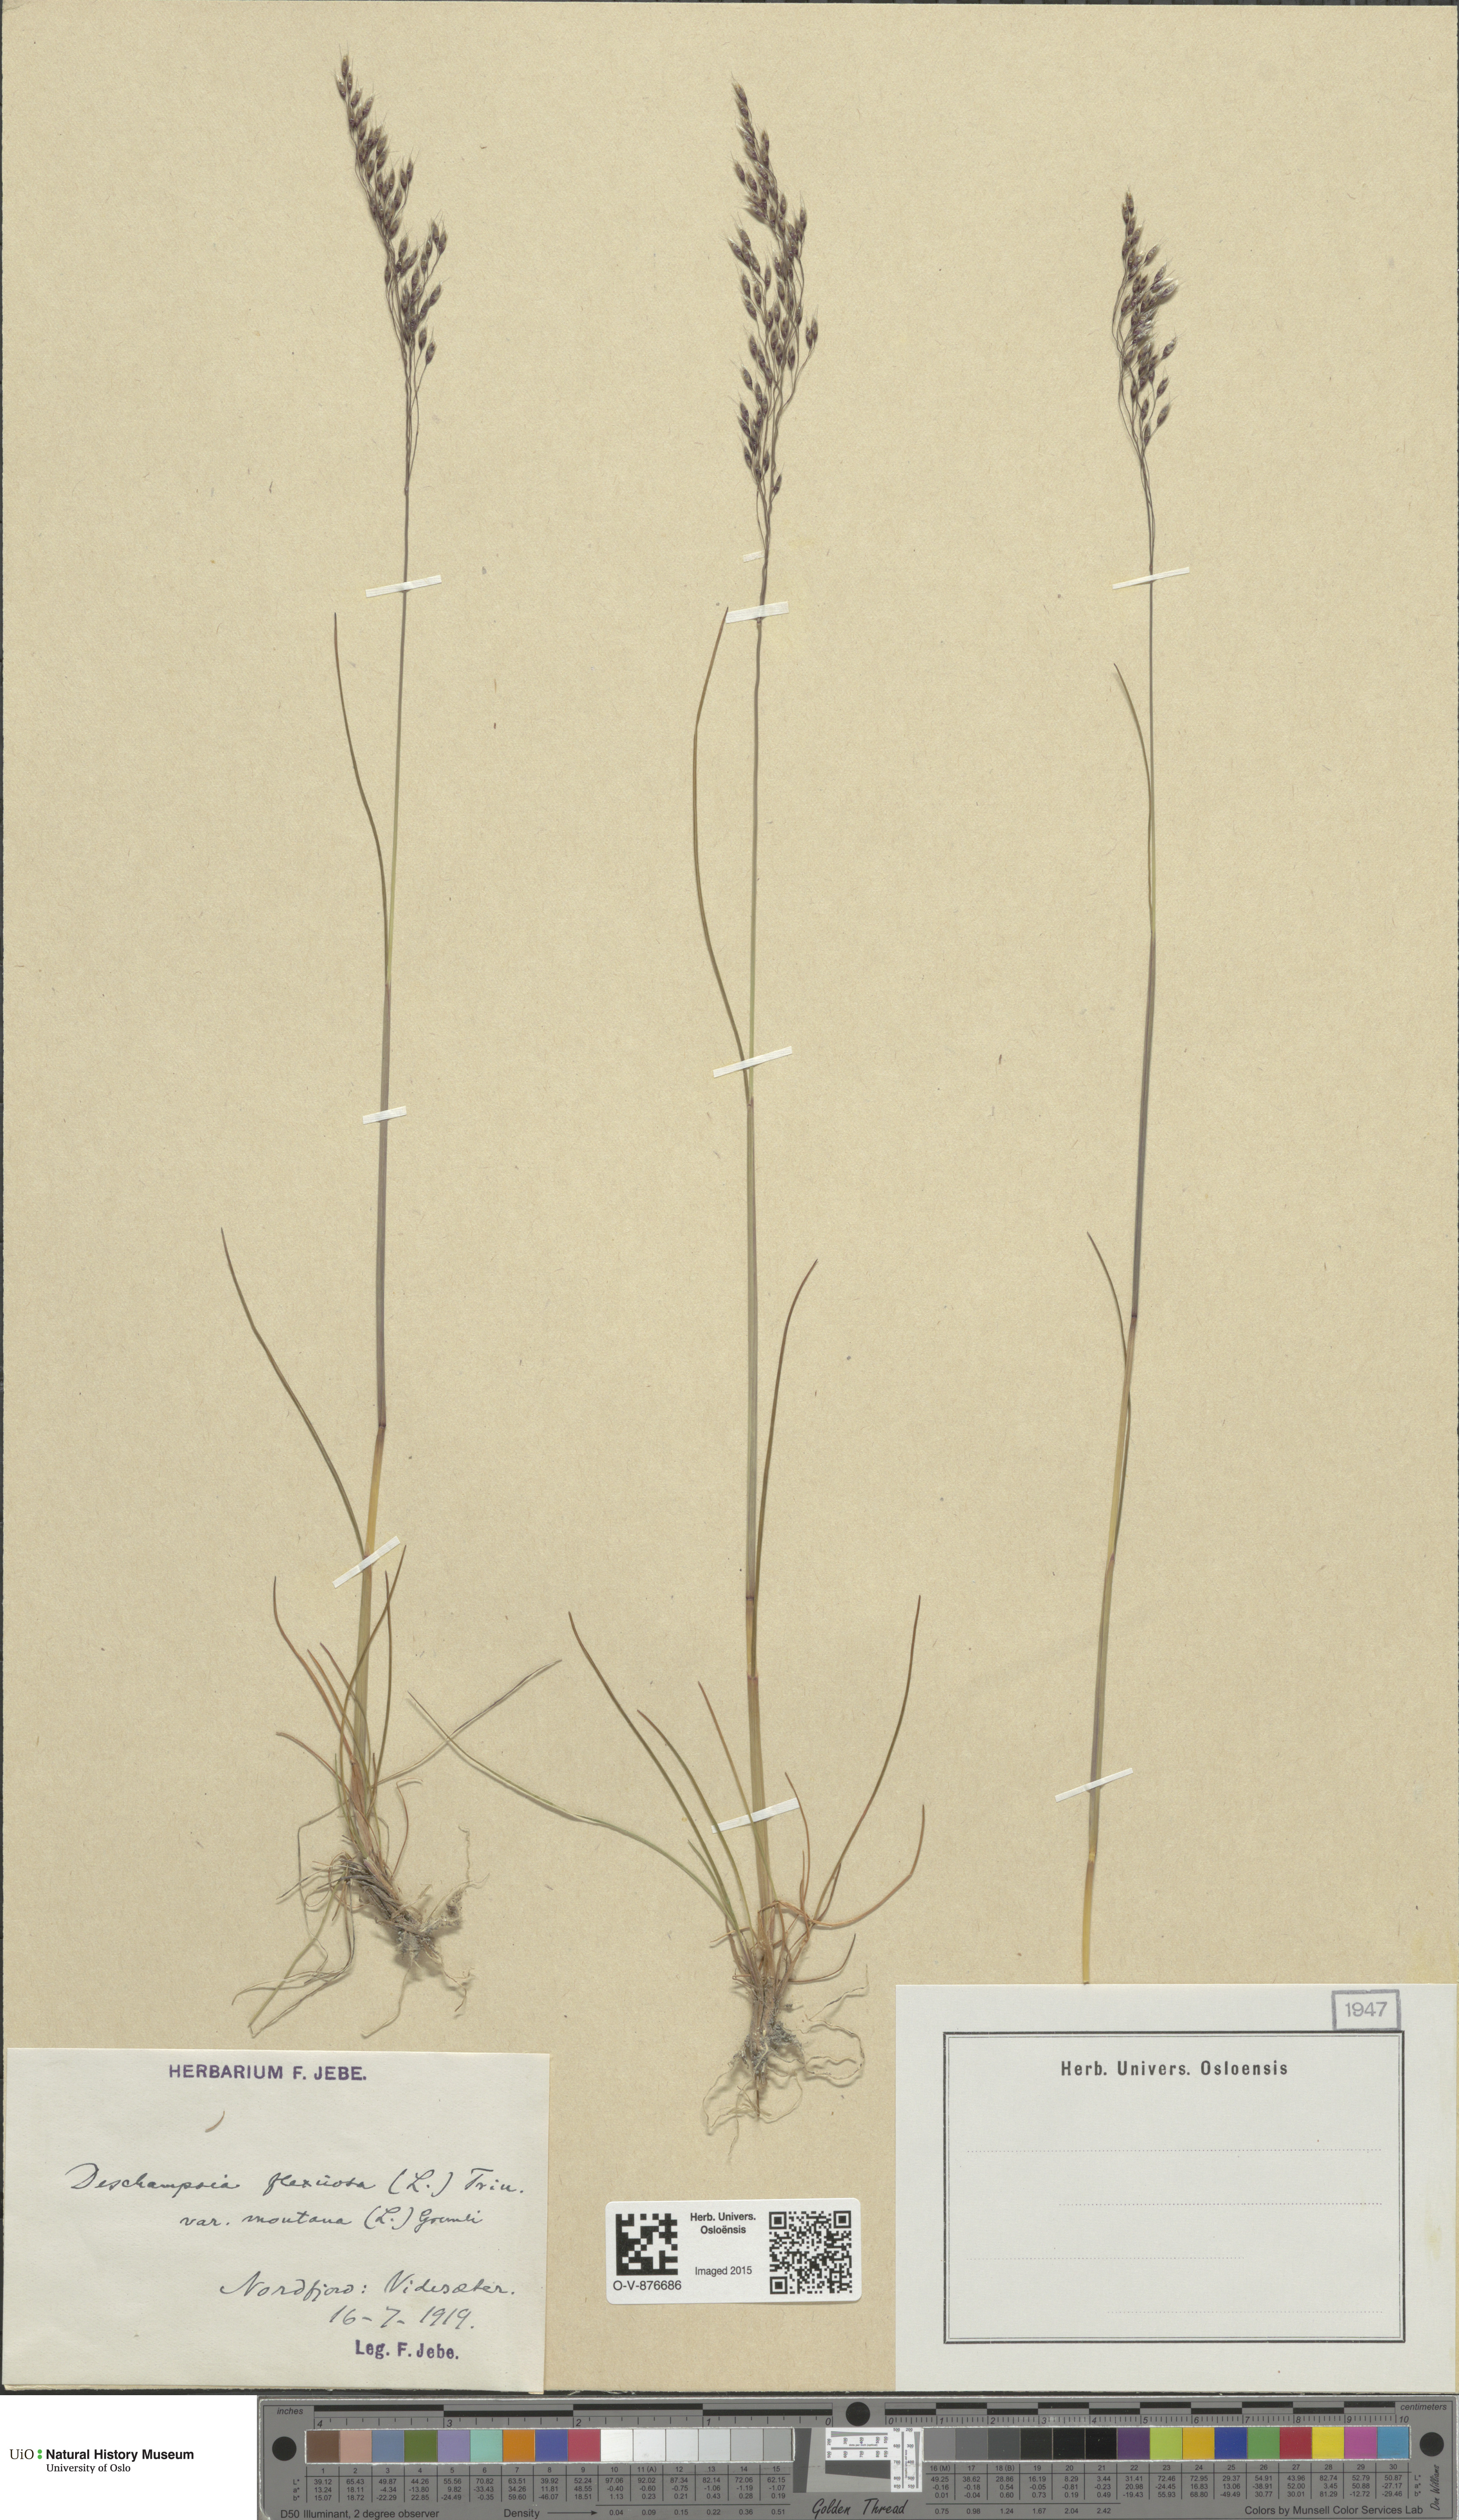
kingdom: Plantae
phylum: Tracheophyta
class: Liliopsida
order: Poales
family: Poaceae
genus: Avenella
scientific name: Avenella flexuosa
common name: Wavy hairgrass
